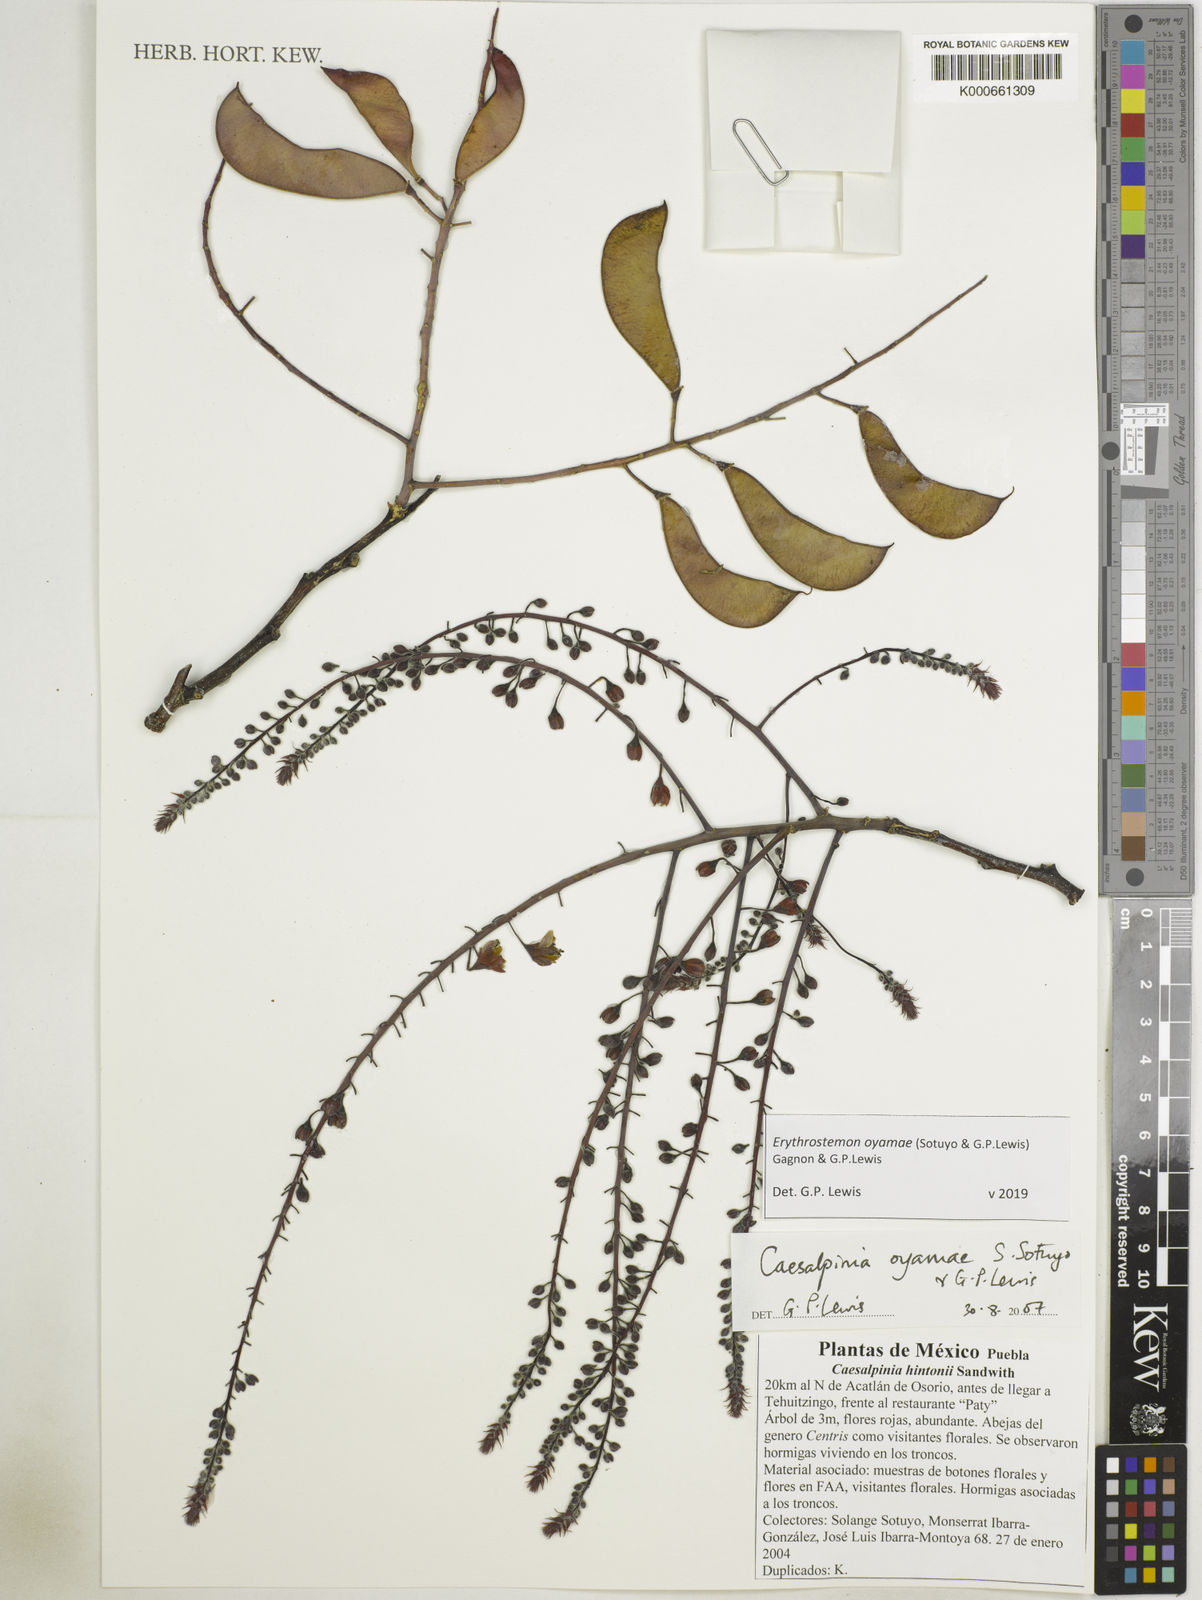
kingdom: Plantae
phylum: Tracheophyta
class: Magnoliopsida
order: Fabales
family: Fabaceae
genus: Erythrostemon
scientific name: Erythrostemon oyamae
